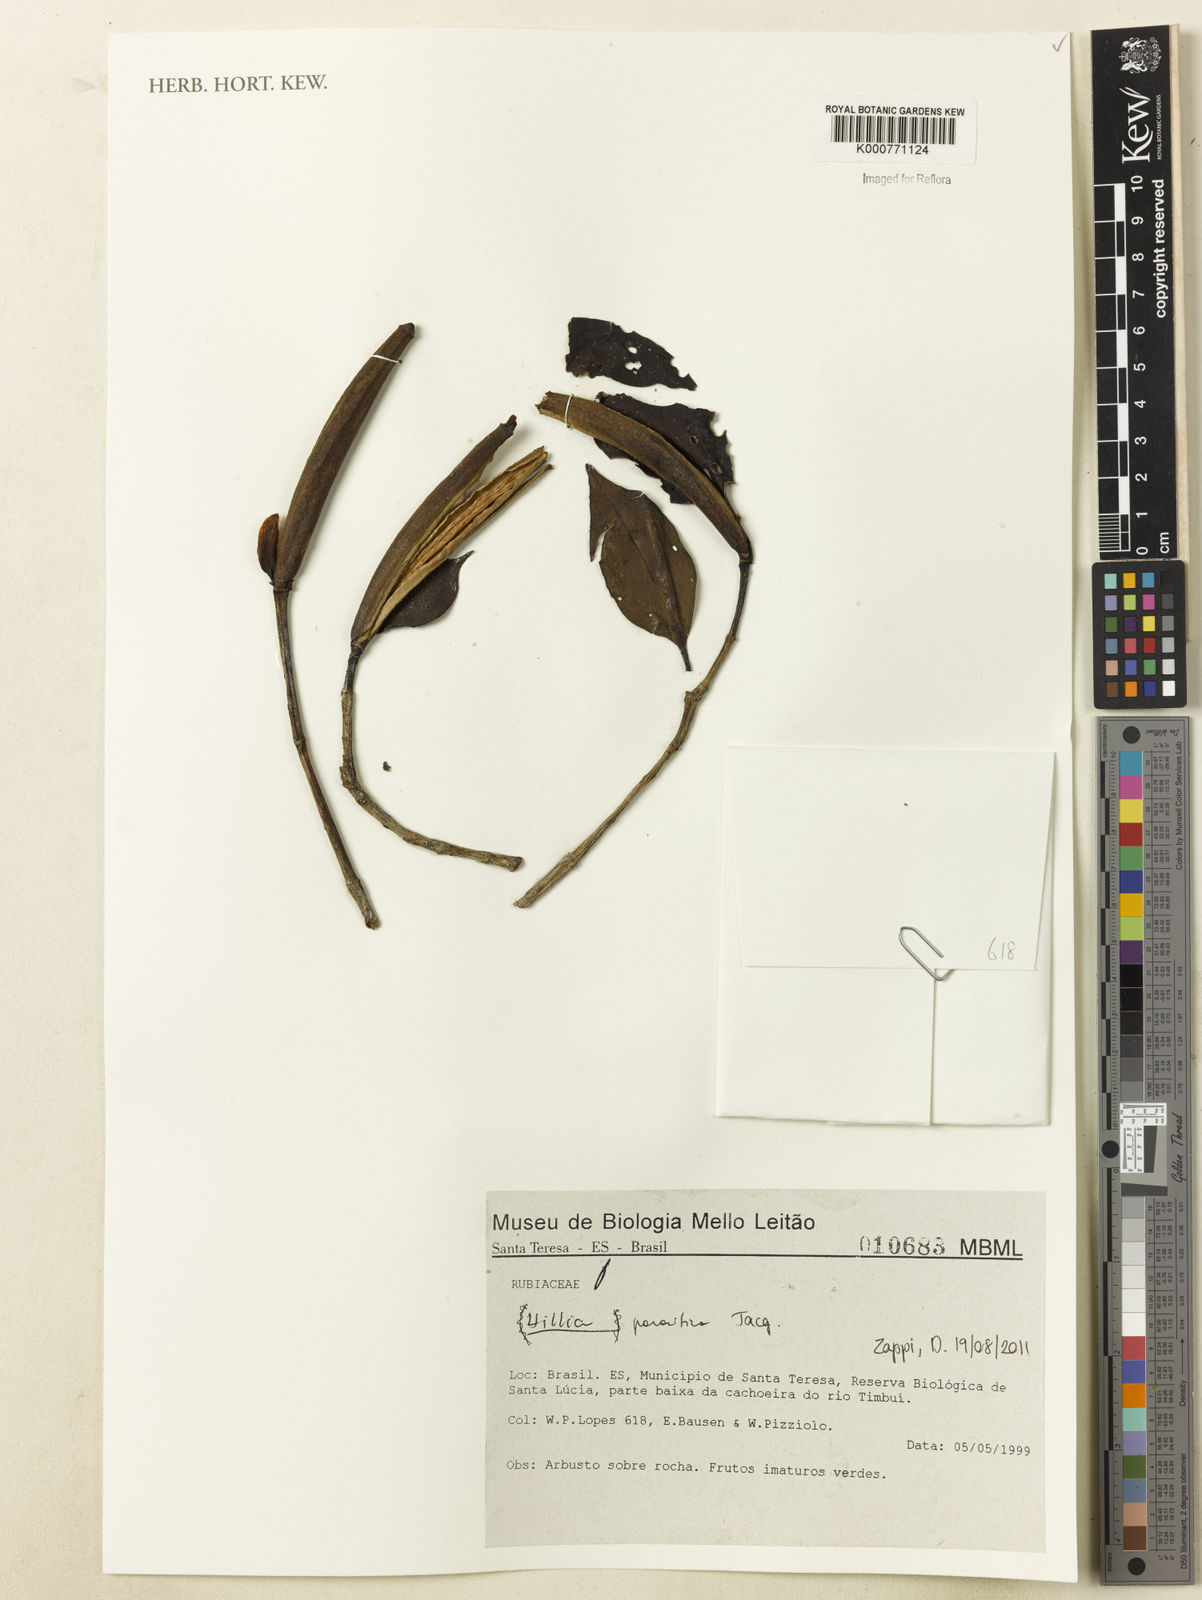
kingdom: Plantae
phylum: Tracheophyta
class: Magnoliopsida
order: Gentianales
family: Rubiaceae
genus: Hillia
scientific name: Hillia parasitica
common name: Morning star
